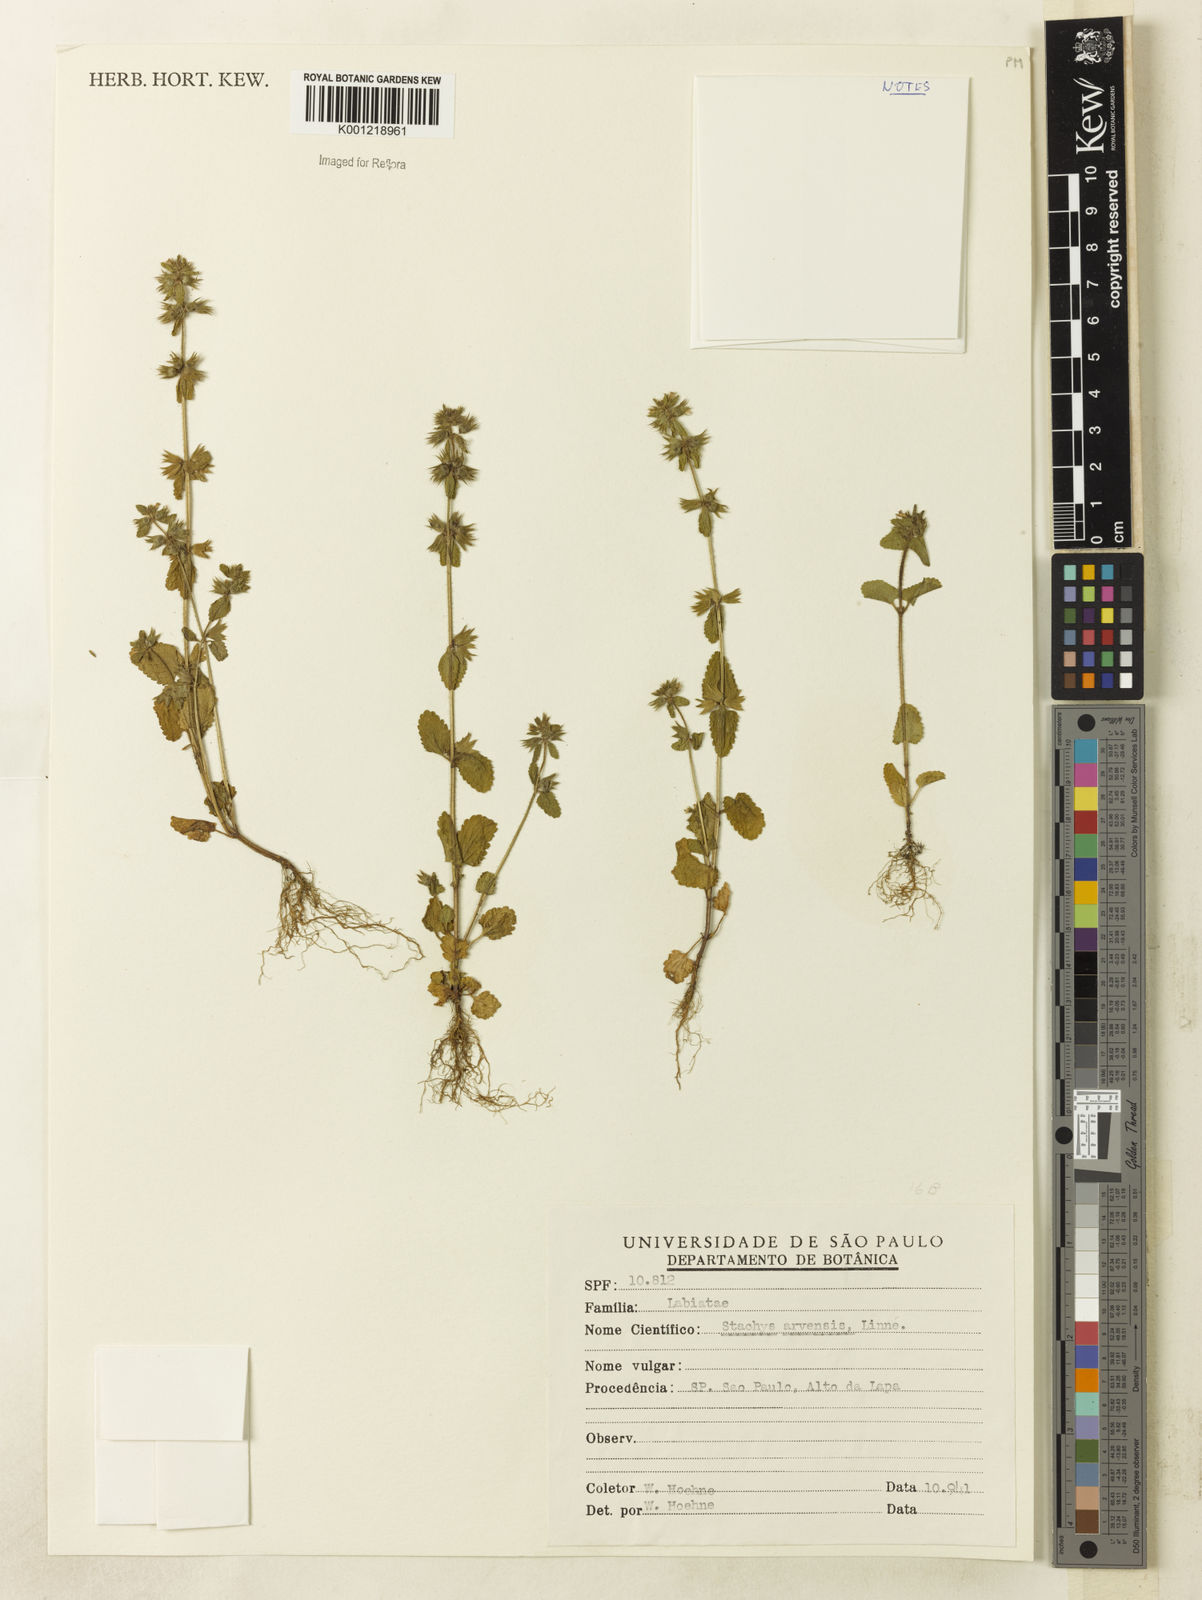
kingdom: Plantae
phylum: Tracheophyta
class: Magnoliopsida
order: Lamiales
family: Lamiaceae
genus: Stachys
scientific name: Stachys arvensis
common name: Field woundwort
